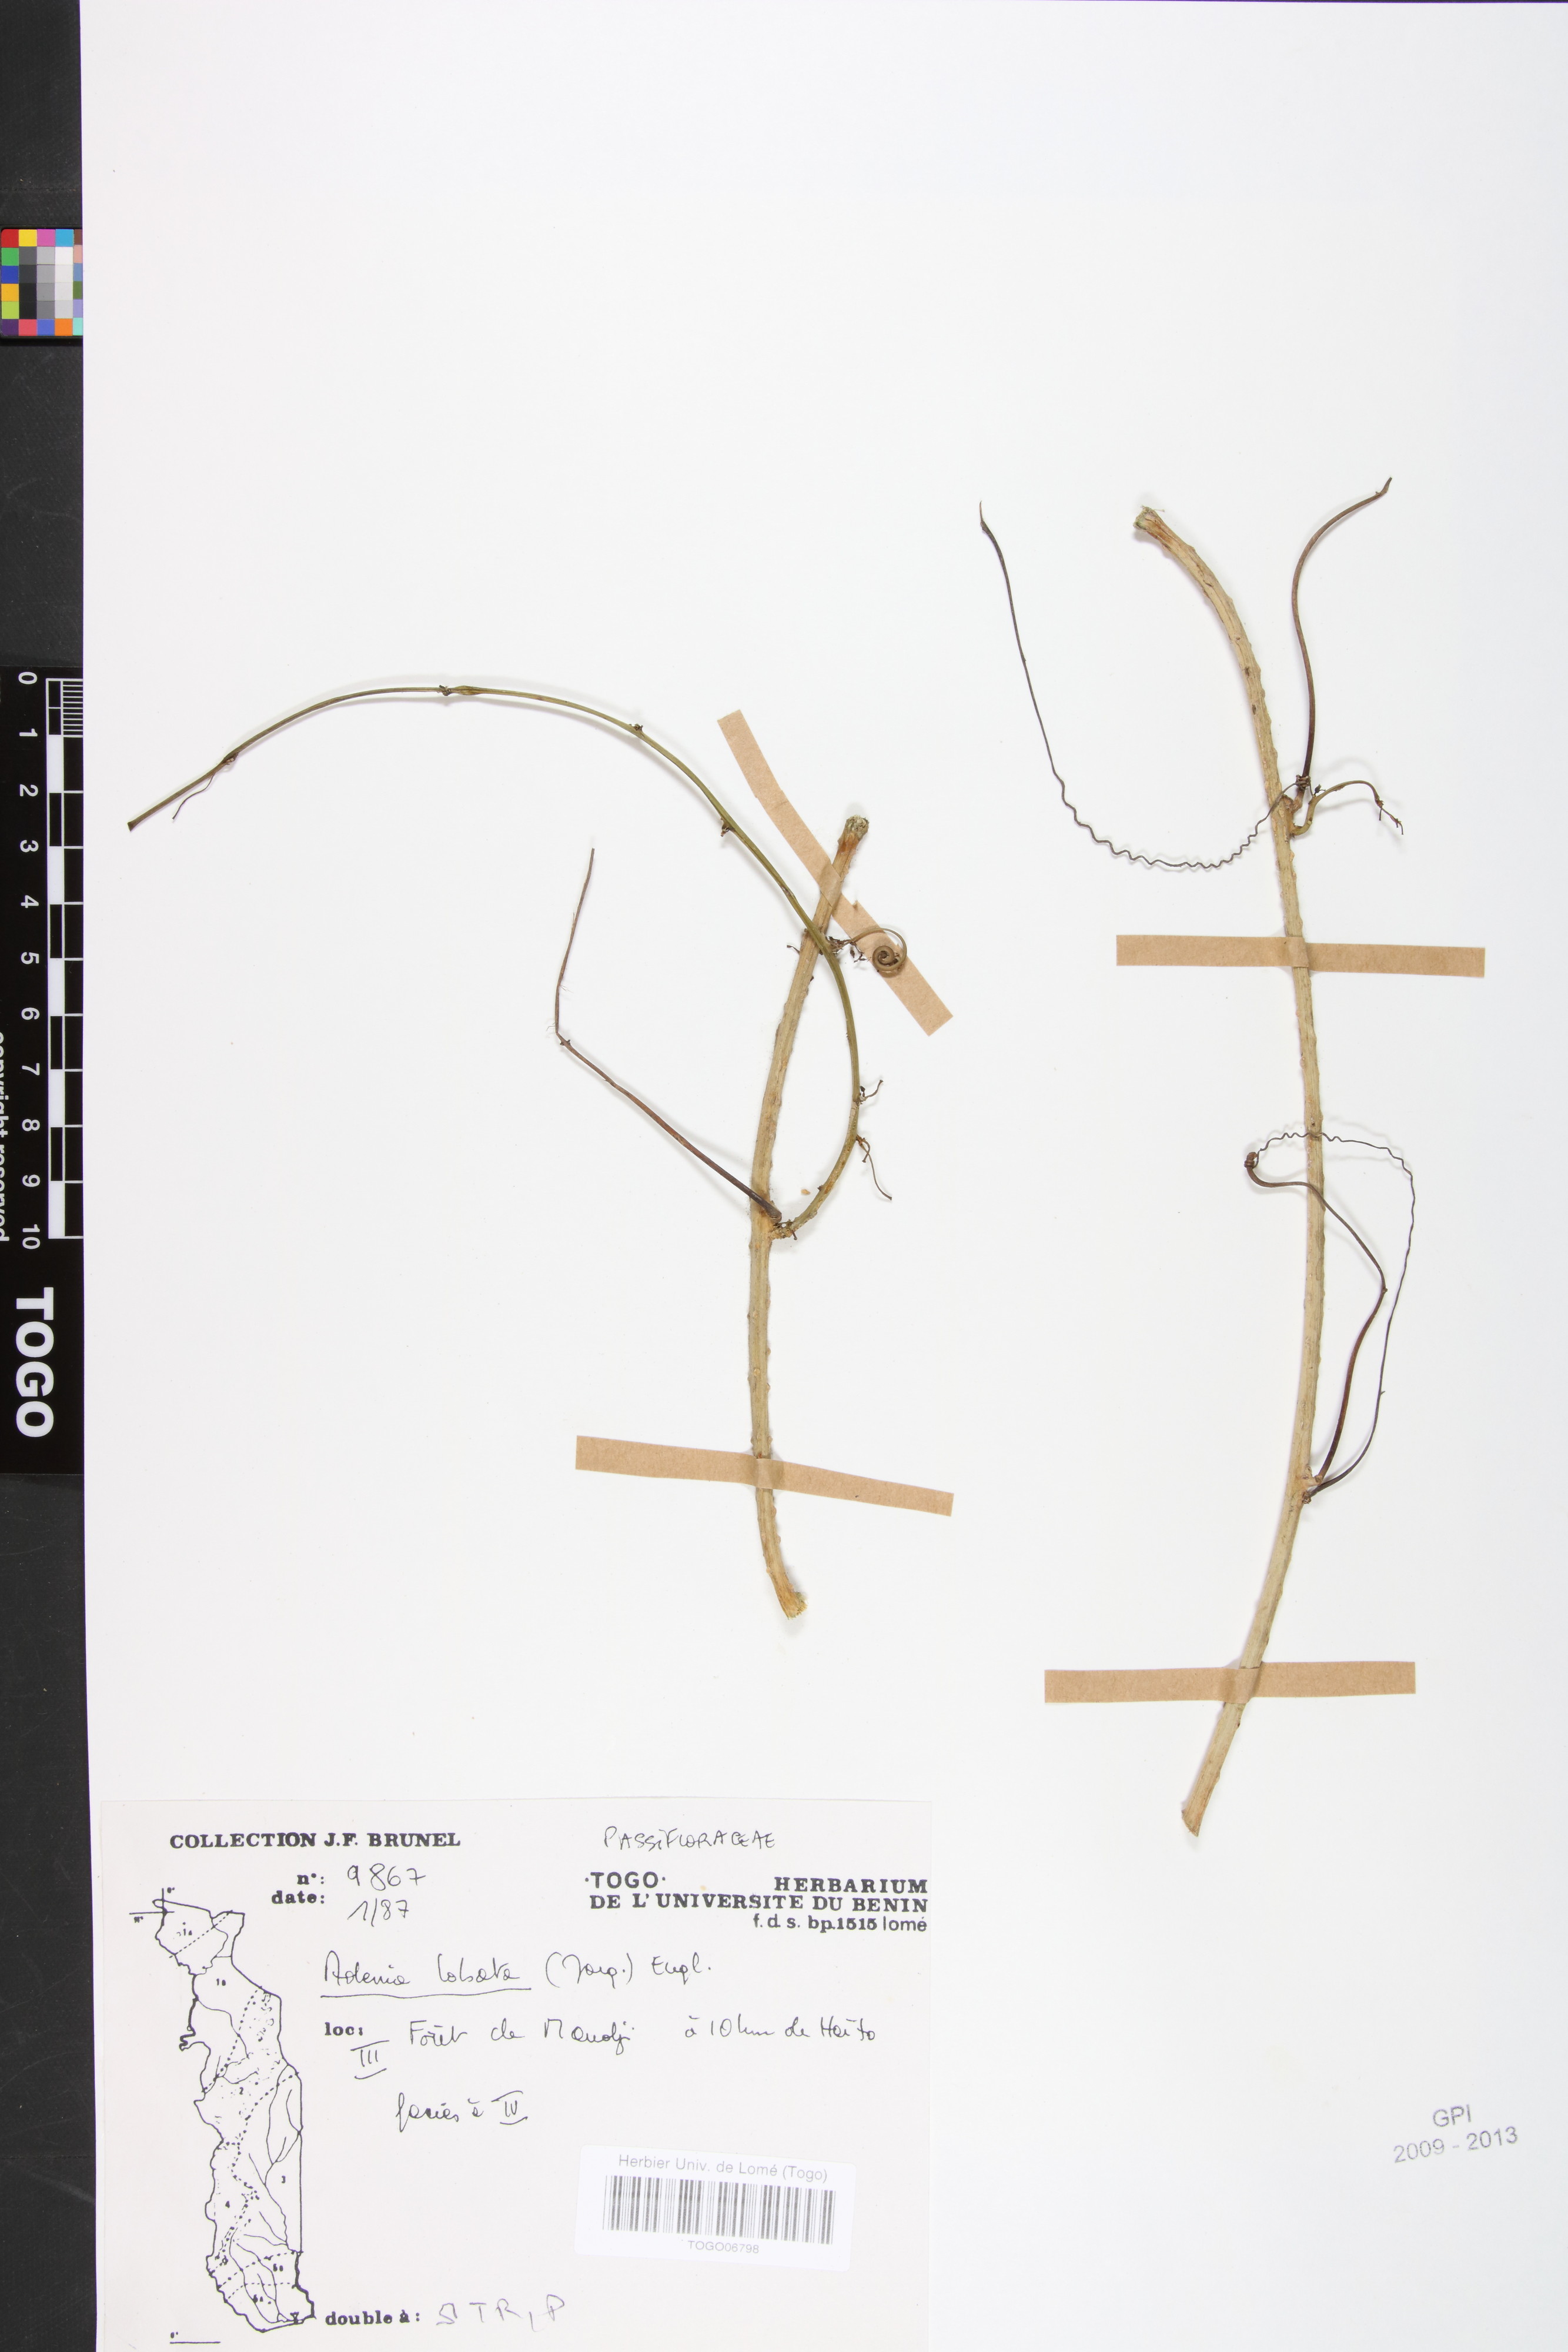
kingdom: Plantae
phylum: Tracheophyta
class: Magnoliopsida
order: Malpighiales
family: Passifloraceae
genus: Adenia
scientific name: Adenia lobata
